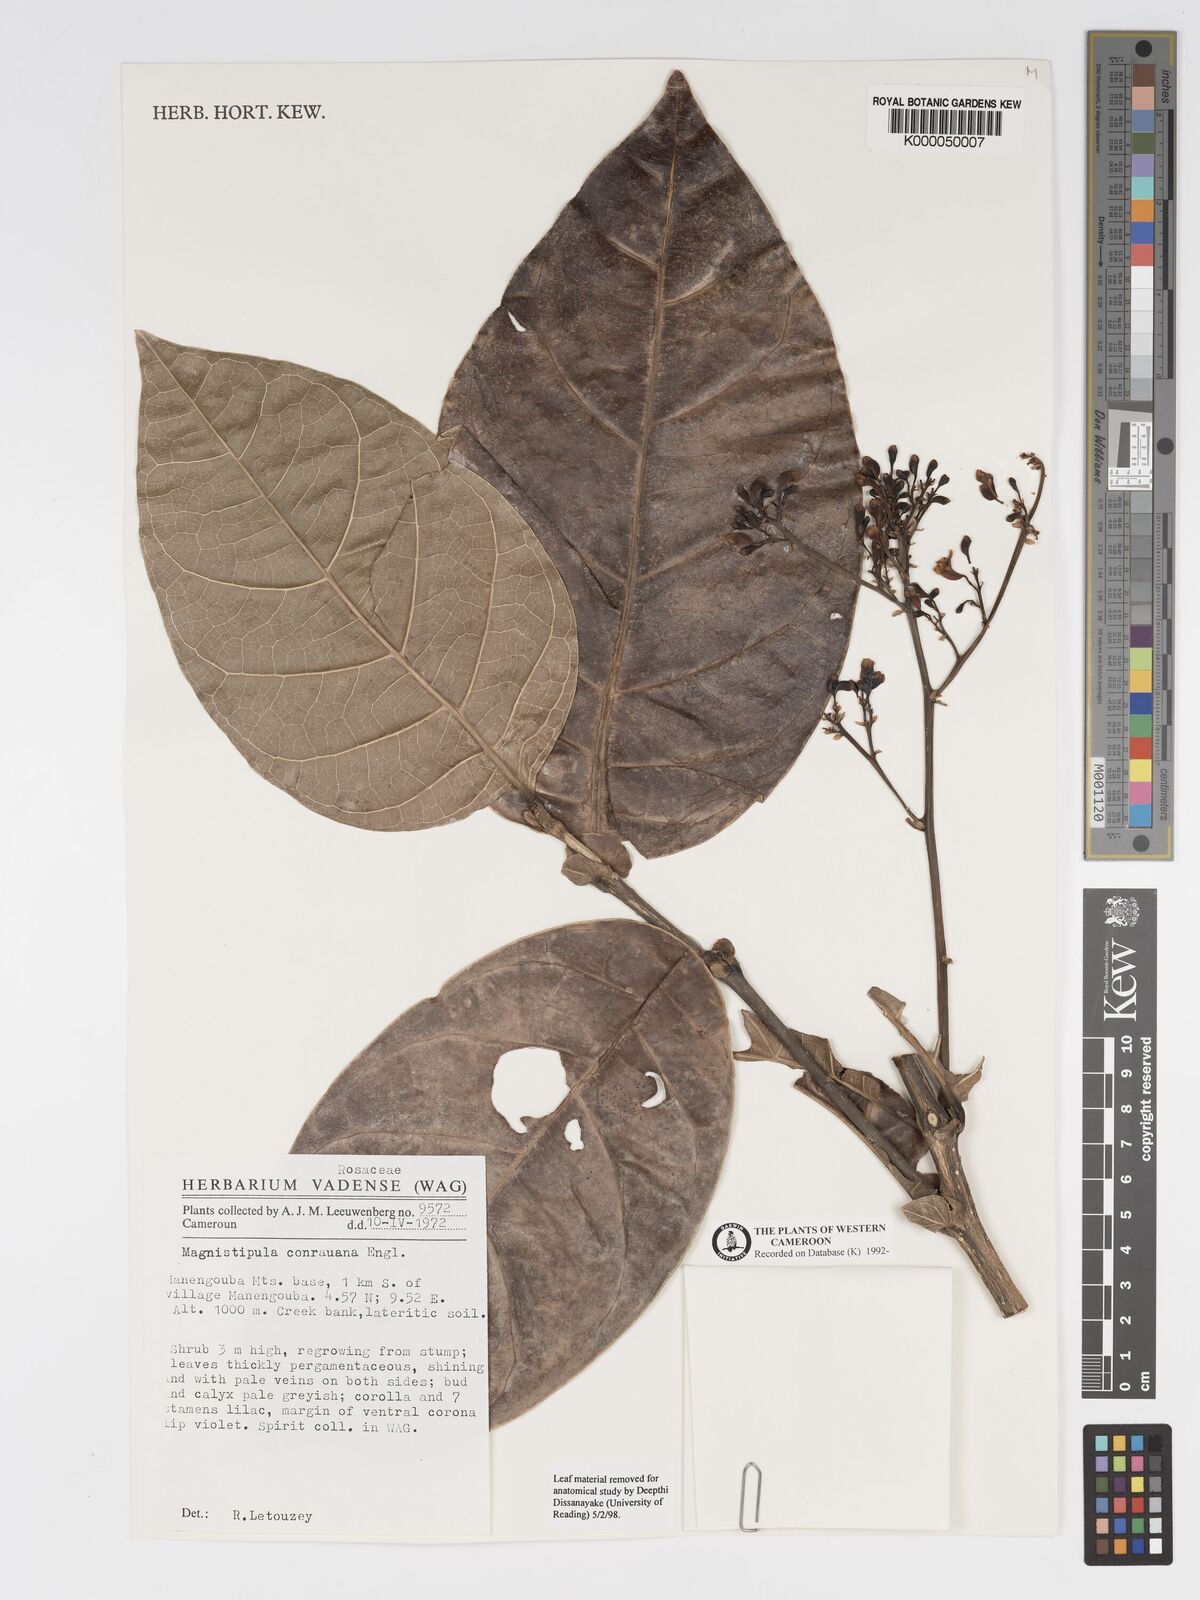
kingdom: Plantae
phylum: Tracheophyta
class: Magnoliopsida
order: Malpighiales
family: Chrysobalanaceae
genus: Magnistipula
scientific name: Magnistipula conrauana
